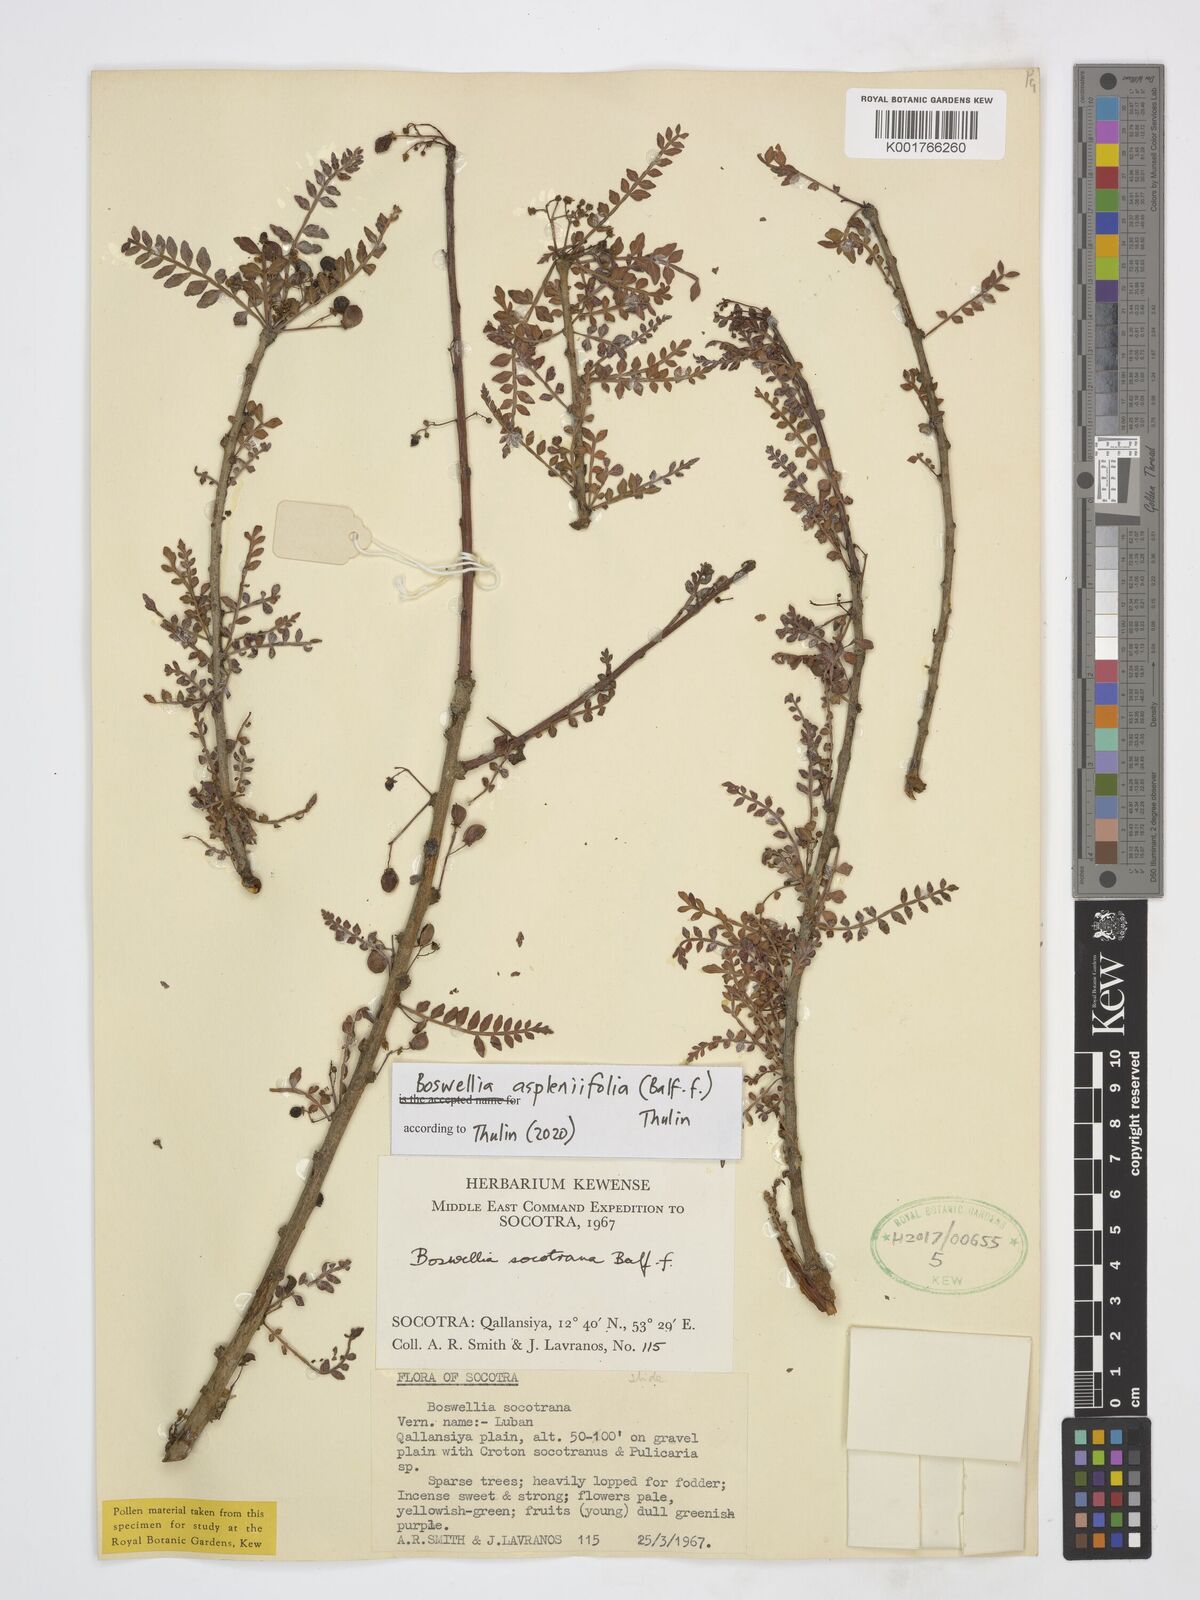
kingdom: Plantae
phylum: Tracheophyta
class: Magnoliopsida
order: Sapindales
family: Burseraceae
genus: Boswellia
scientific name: Boswellia
